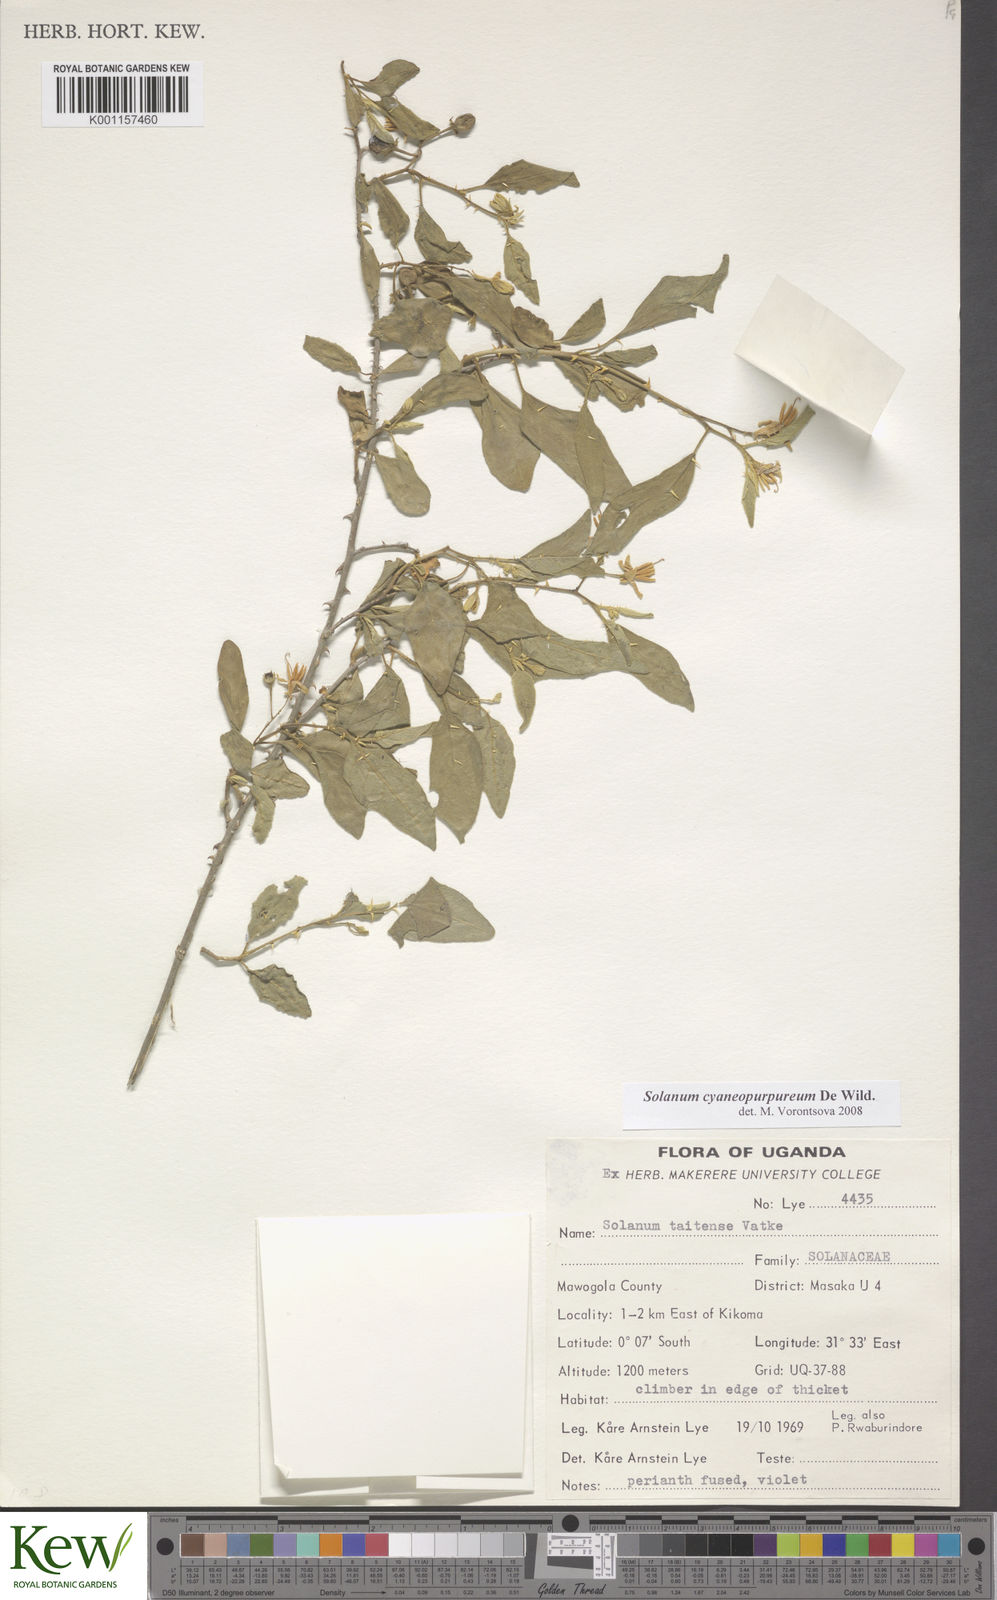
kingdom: Plantae
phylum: Tracheophyta
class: Magnoliopsida
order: Solanales
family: Solanaceae
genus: Solanum
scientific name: Solanum cyaneopurpureum
